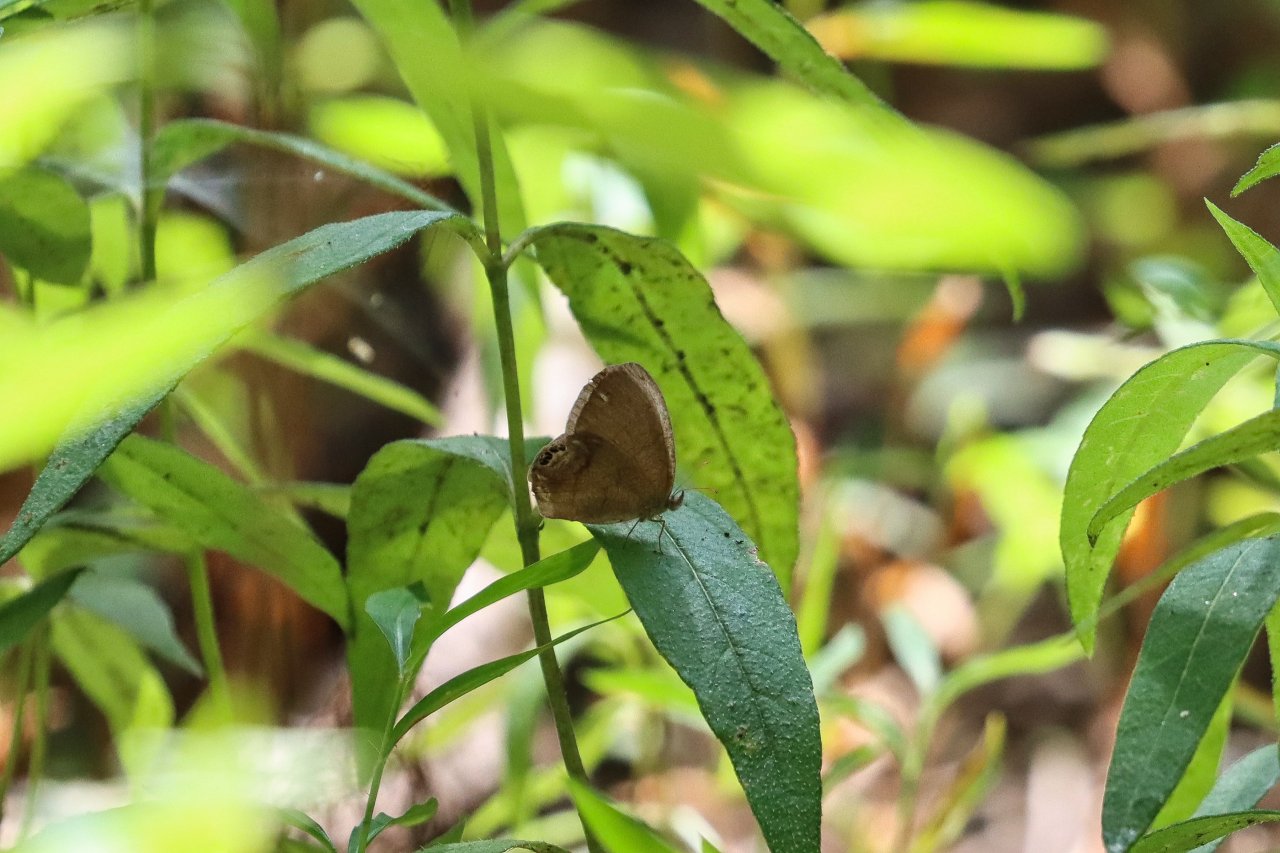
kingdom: Animalia
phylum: Arthropoda
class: Insecta
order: Lepidoptera
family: Nymphalidae
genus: Euptychia
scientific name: Euptychia cornelius
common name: Gemmed Satyr
